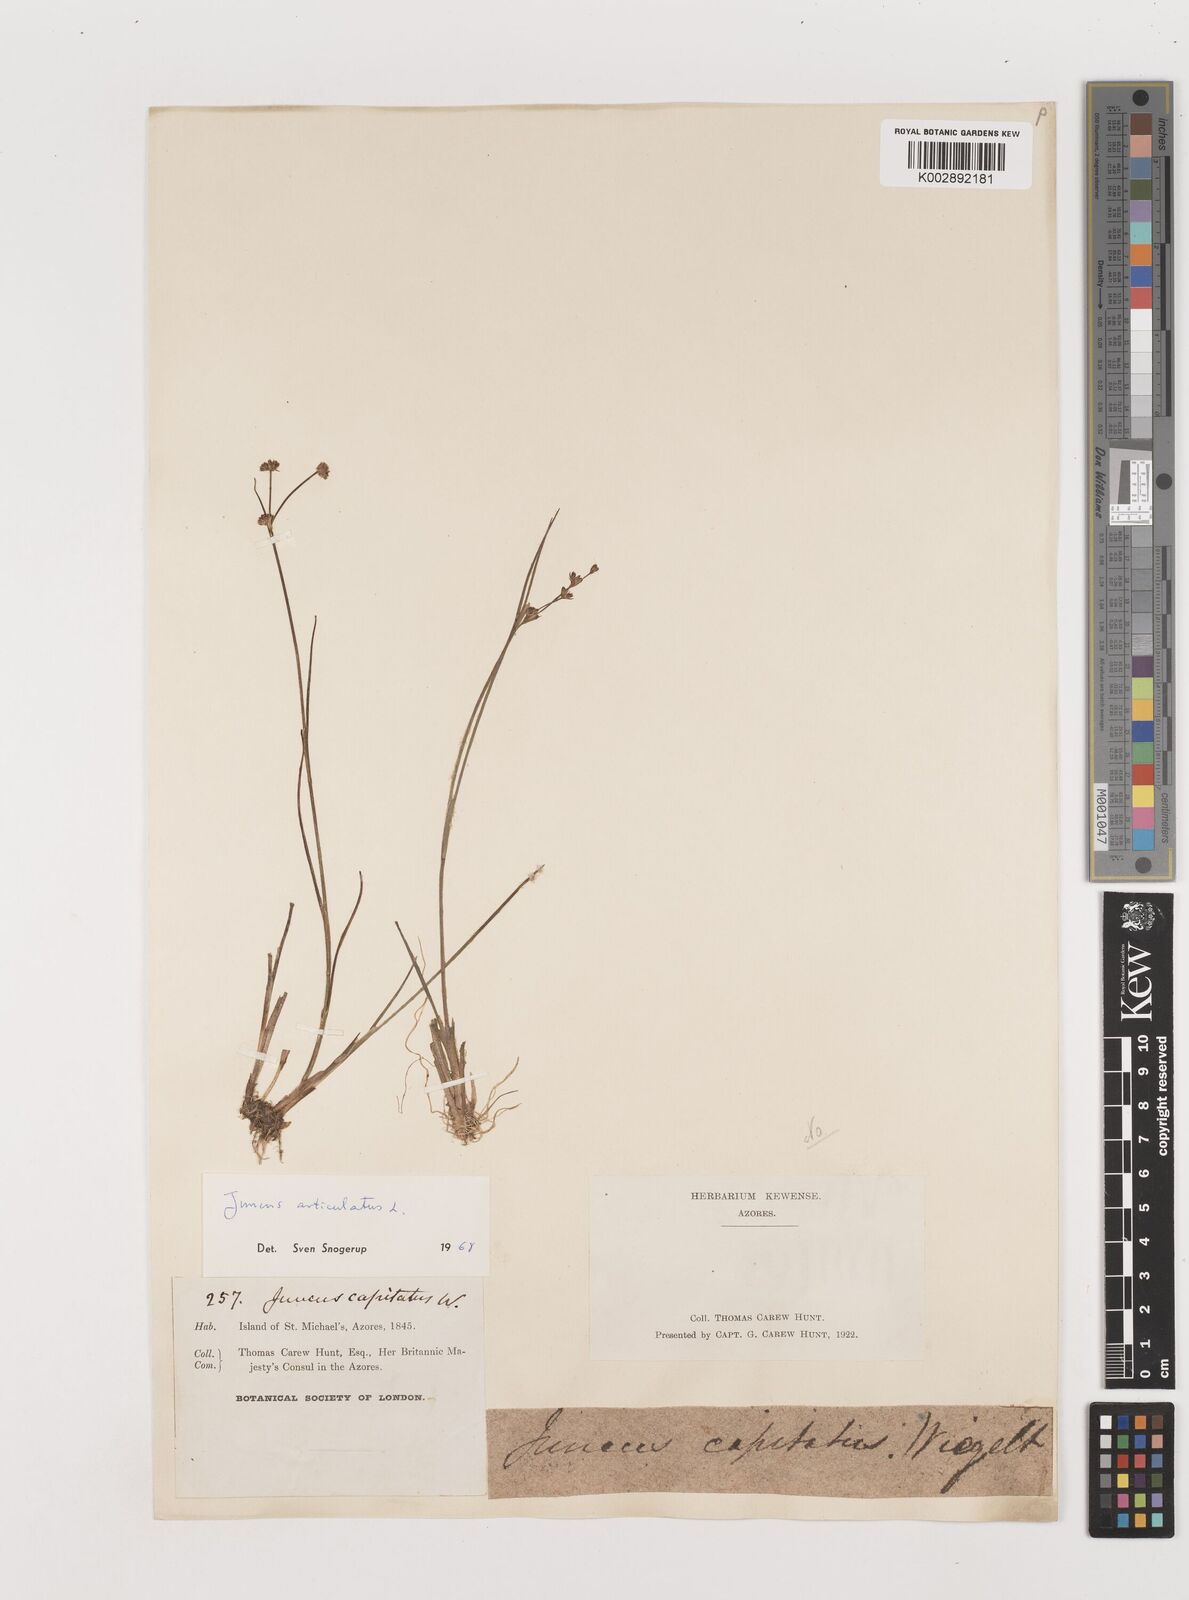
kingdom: Plantae
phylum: Tracheophyta
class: Liliopsida
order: Poales
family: Juncaceae
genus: Juncus
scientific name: Juncus articulatus
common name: Jointed rush
